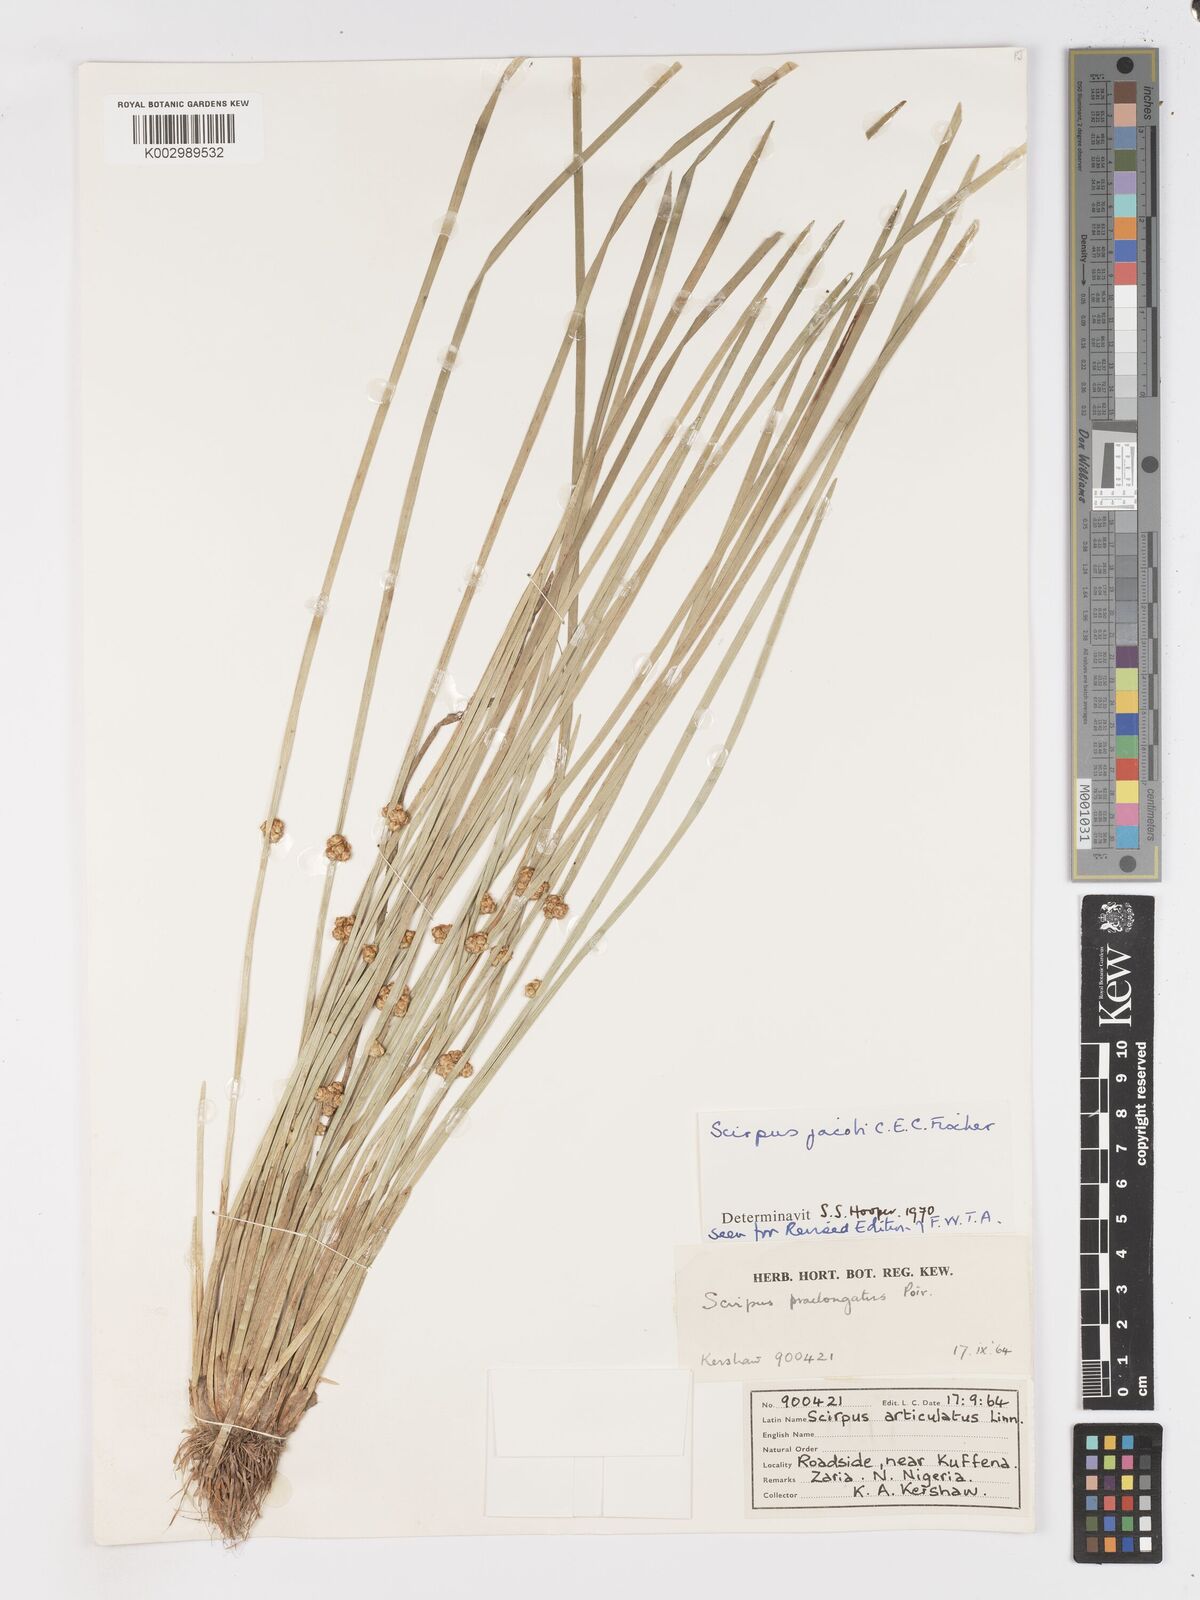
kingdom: Plantae
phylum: Tracheophyta
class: Liliopsida
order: Poales
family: Cyperaceae
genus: Schoenoplectiella
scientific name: Schoenoplectiella praelongata
